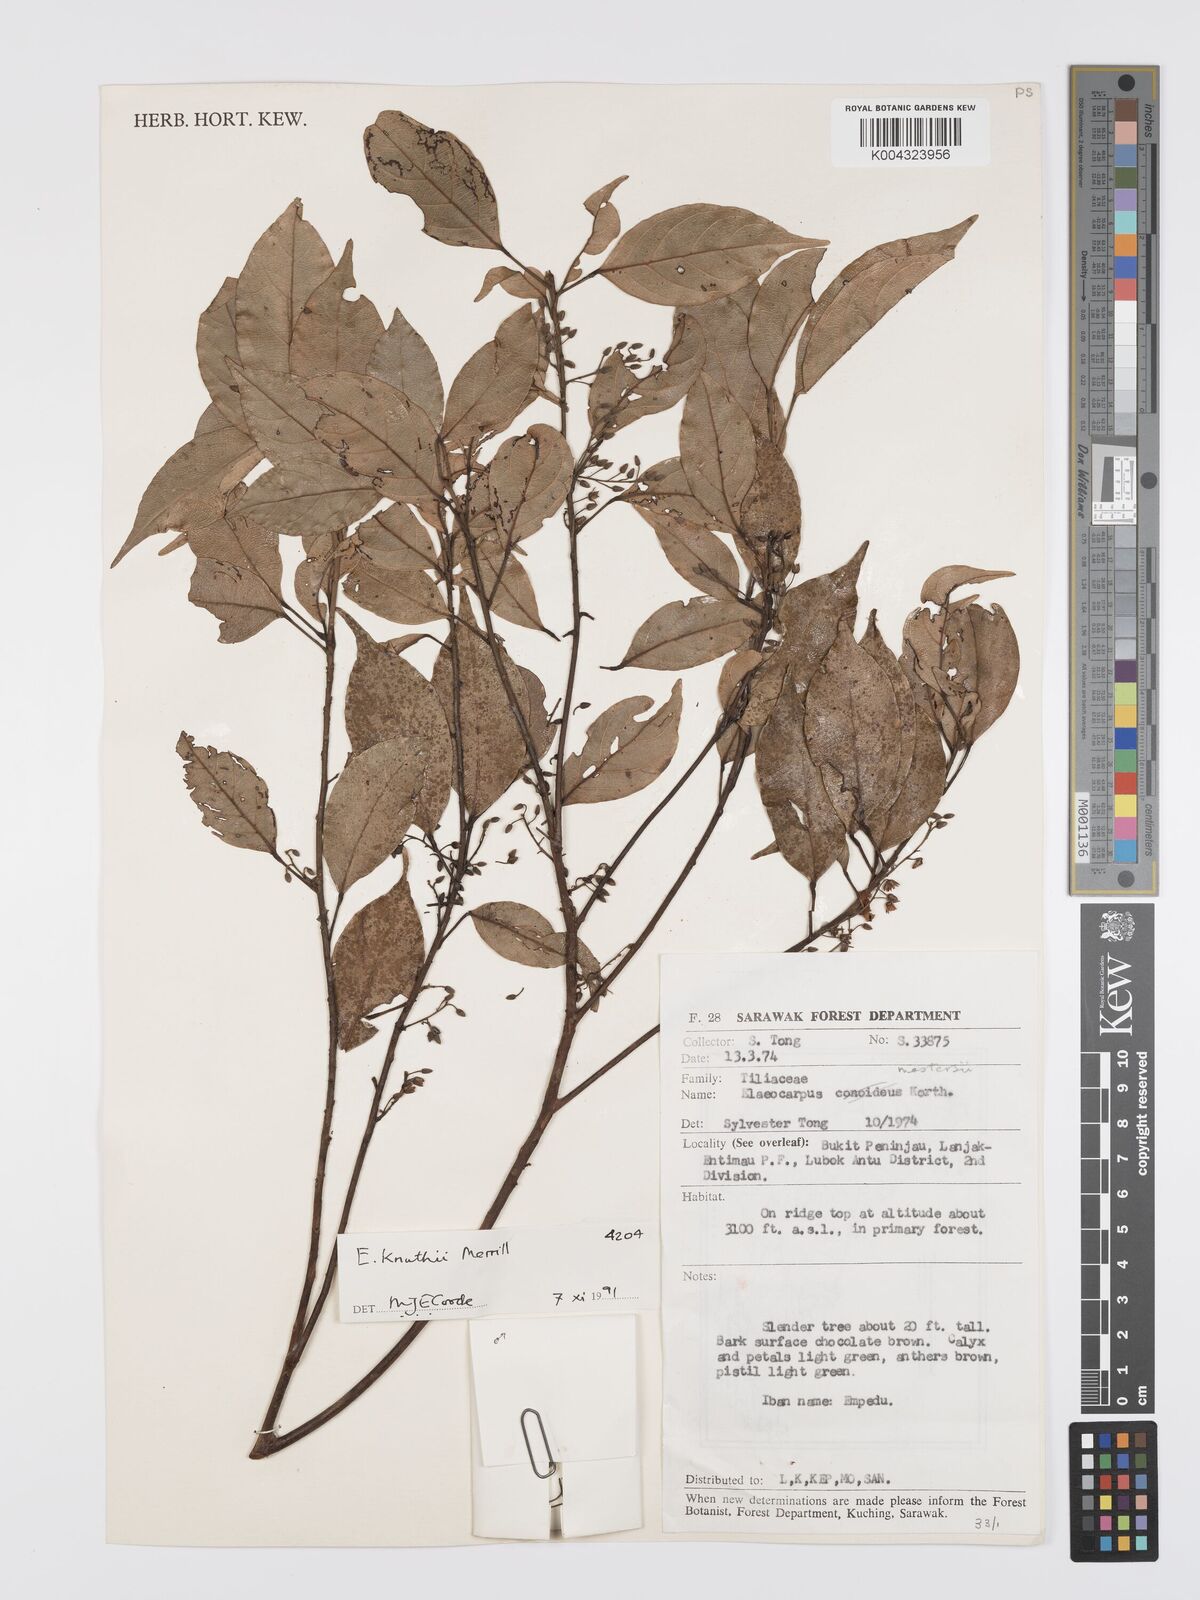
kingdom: Plantae
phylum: Tracheophyta
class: Magnoliopsida
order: Oxalidales
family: Elaeocarpaceae
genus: Elaeocarpus
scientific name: Elaeocarpus knuthii
